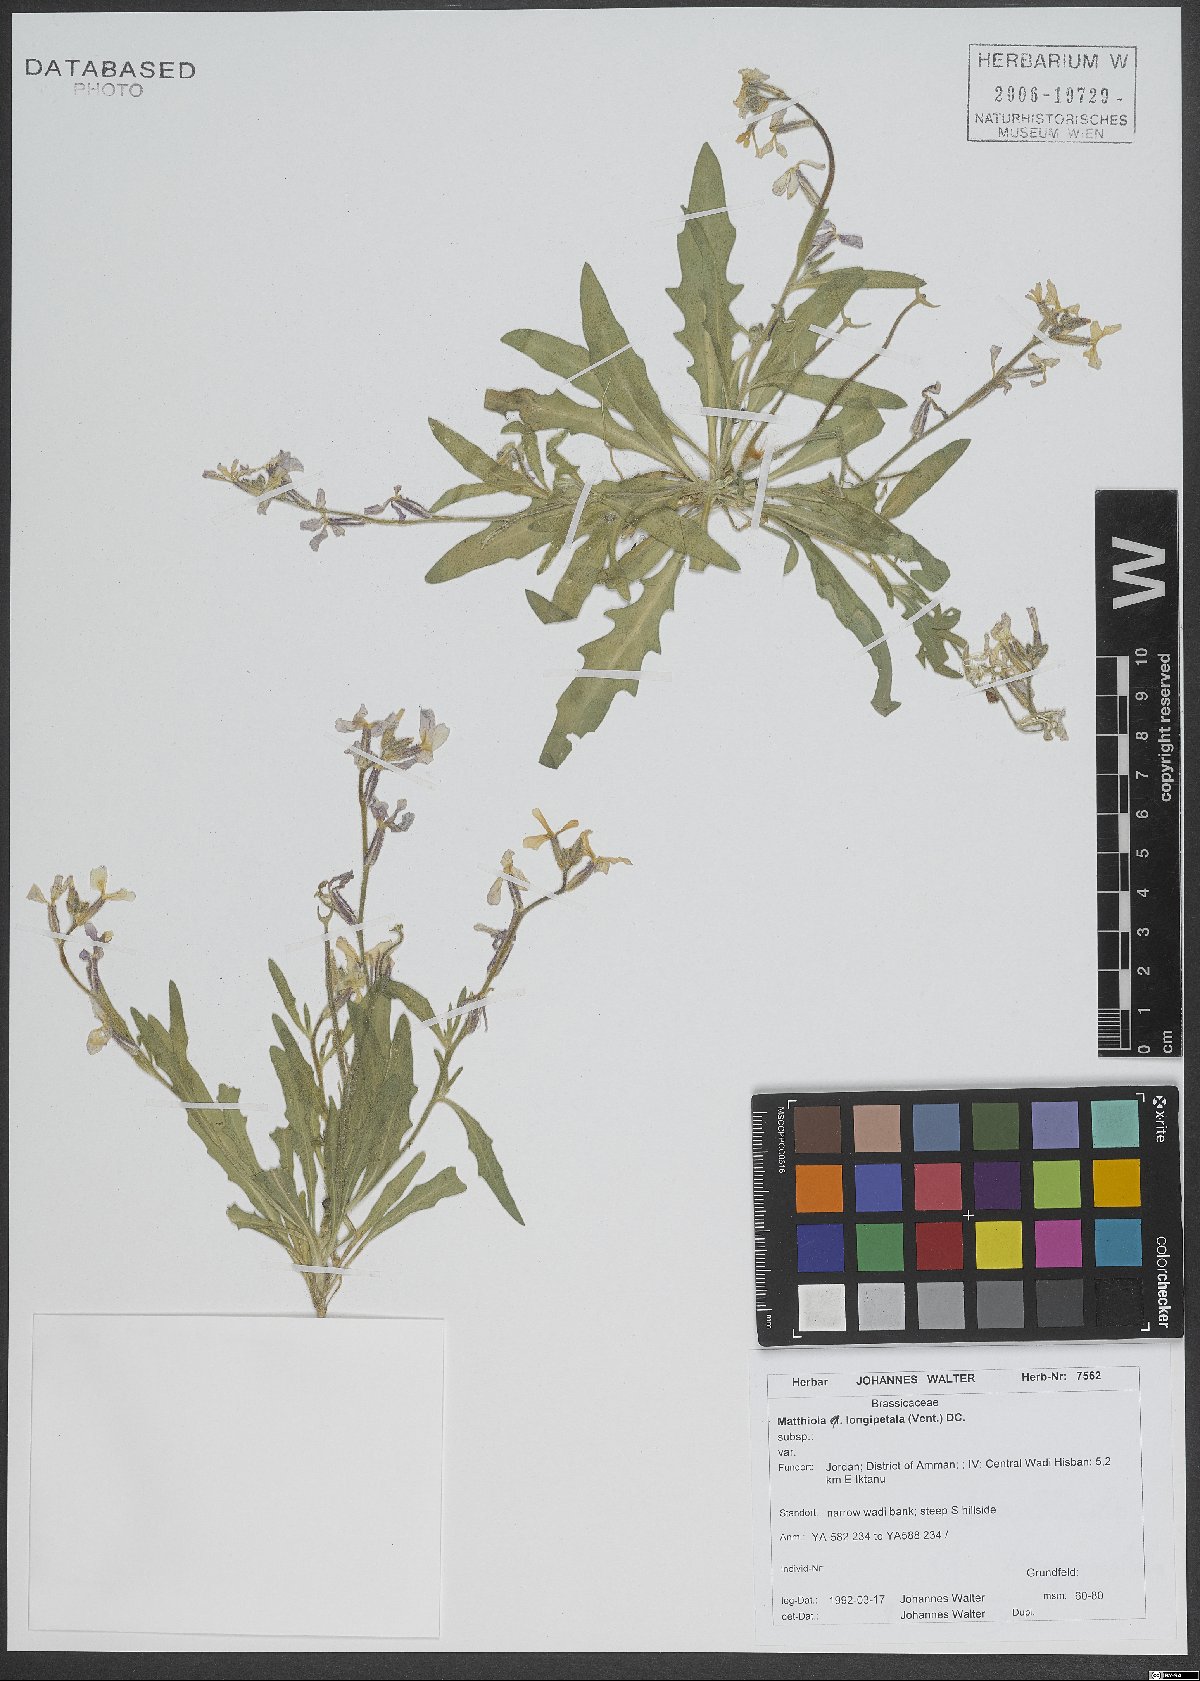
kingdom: Plantae
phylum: Tracheophyta
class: Magnoliopsida
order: Brassicales
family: Brassicaceae
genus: Matthiola
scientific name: Matthiola longipetala
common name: Night-scented stock
